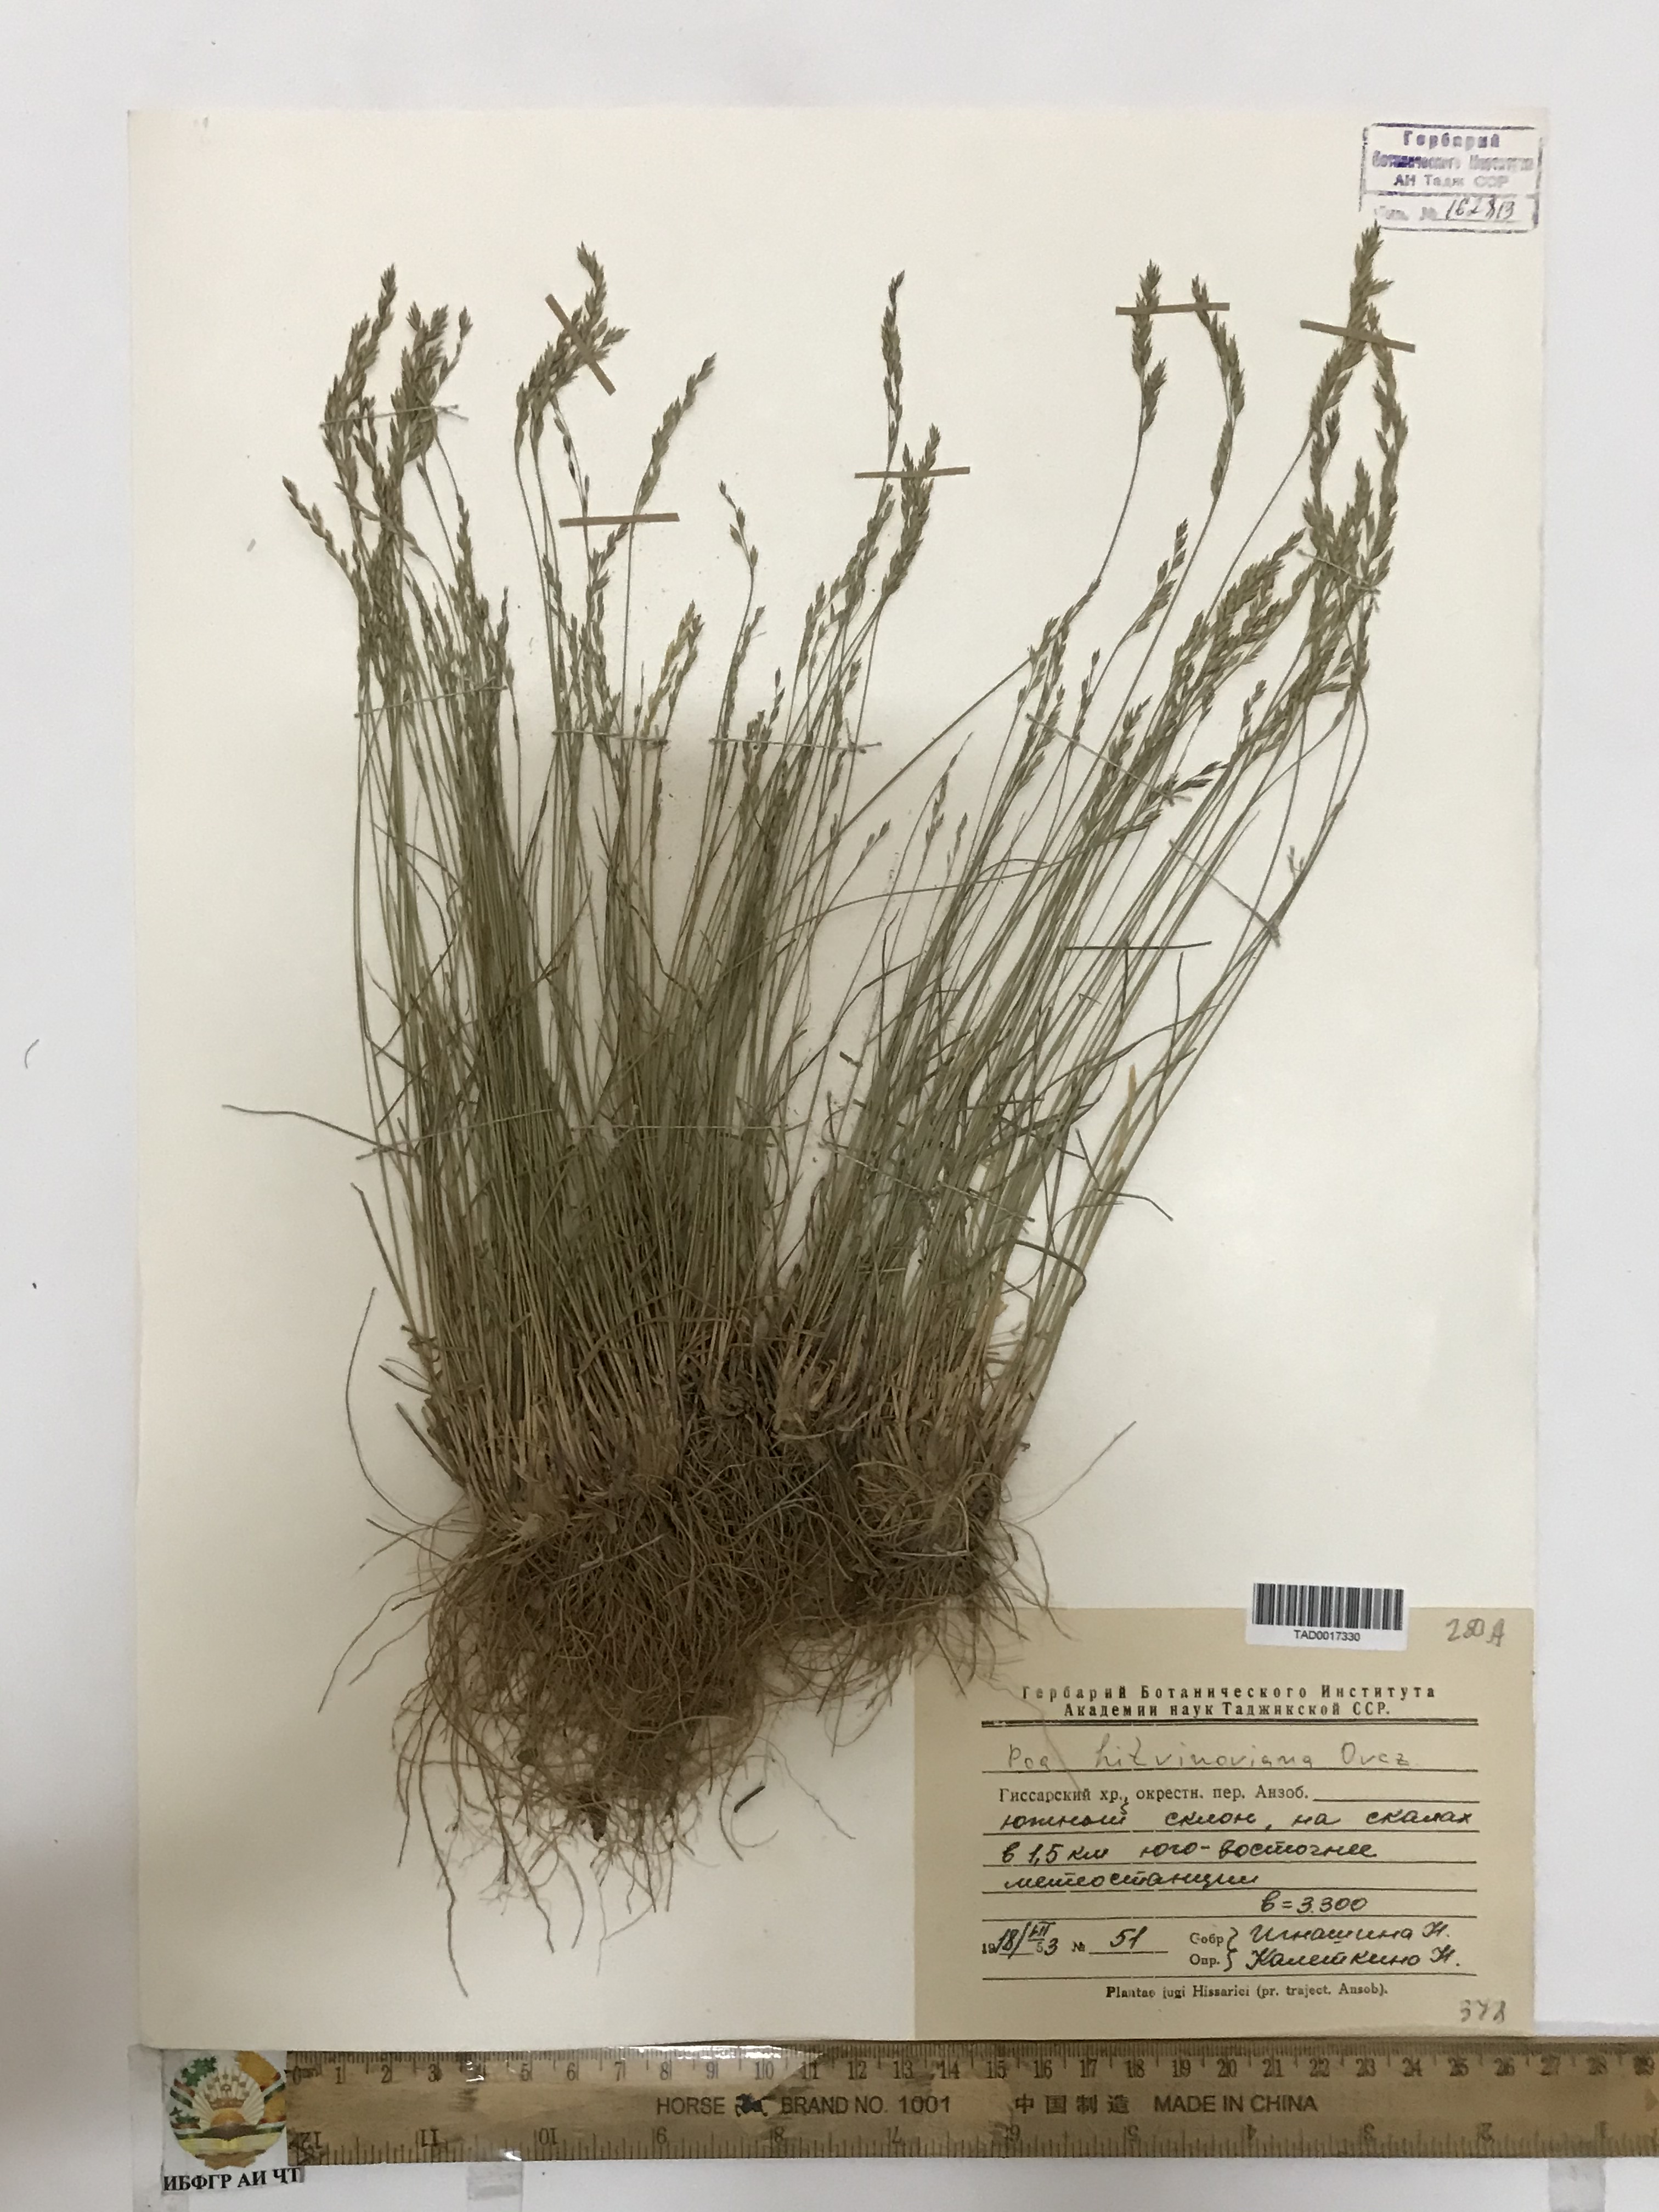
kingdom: Plantae
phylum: Tracheophyta
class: Liliopsida
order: Poales
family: Poaceae
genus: Poa
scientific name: Poa glauca
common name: Glaucous bluegrass
